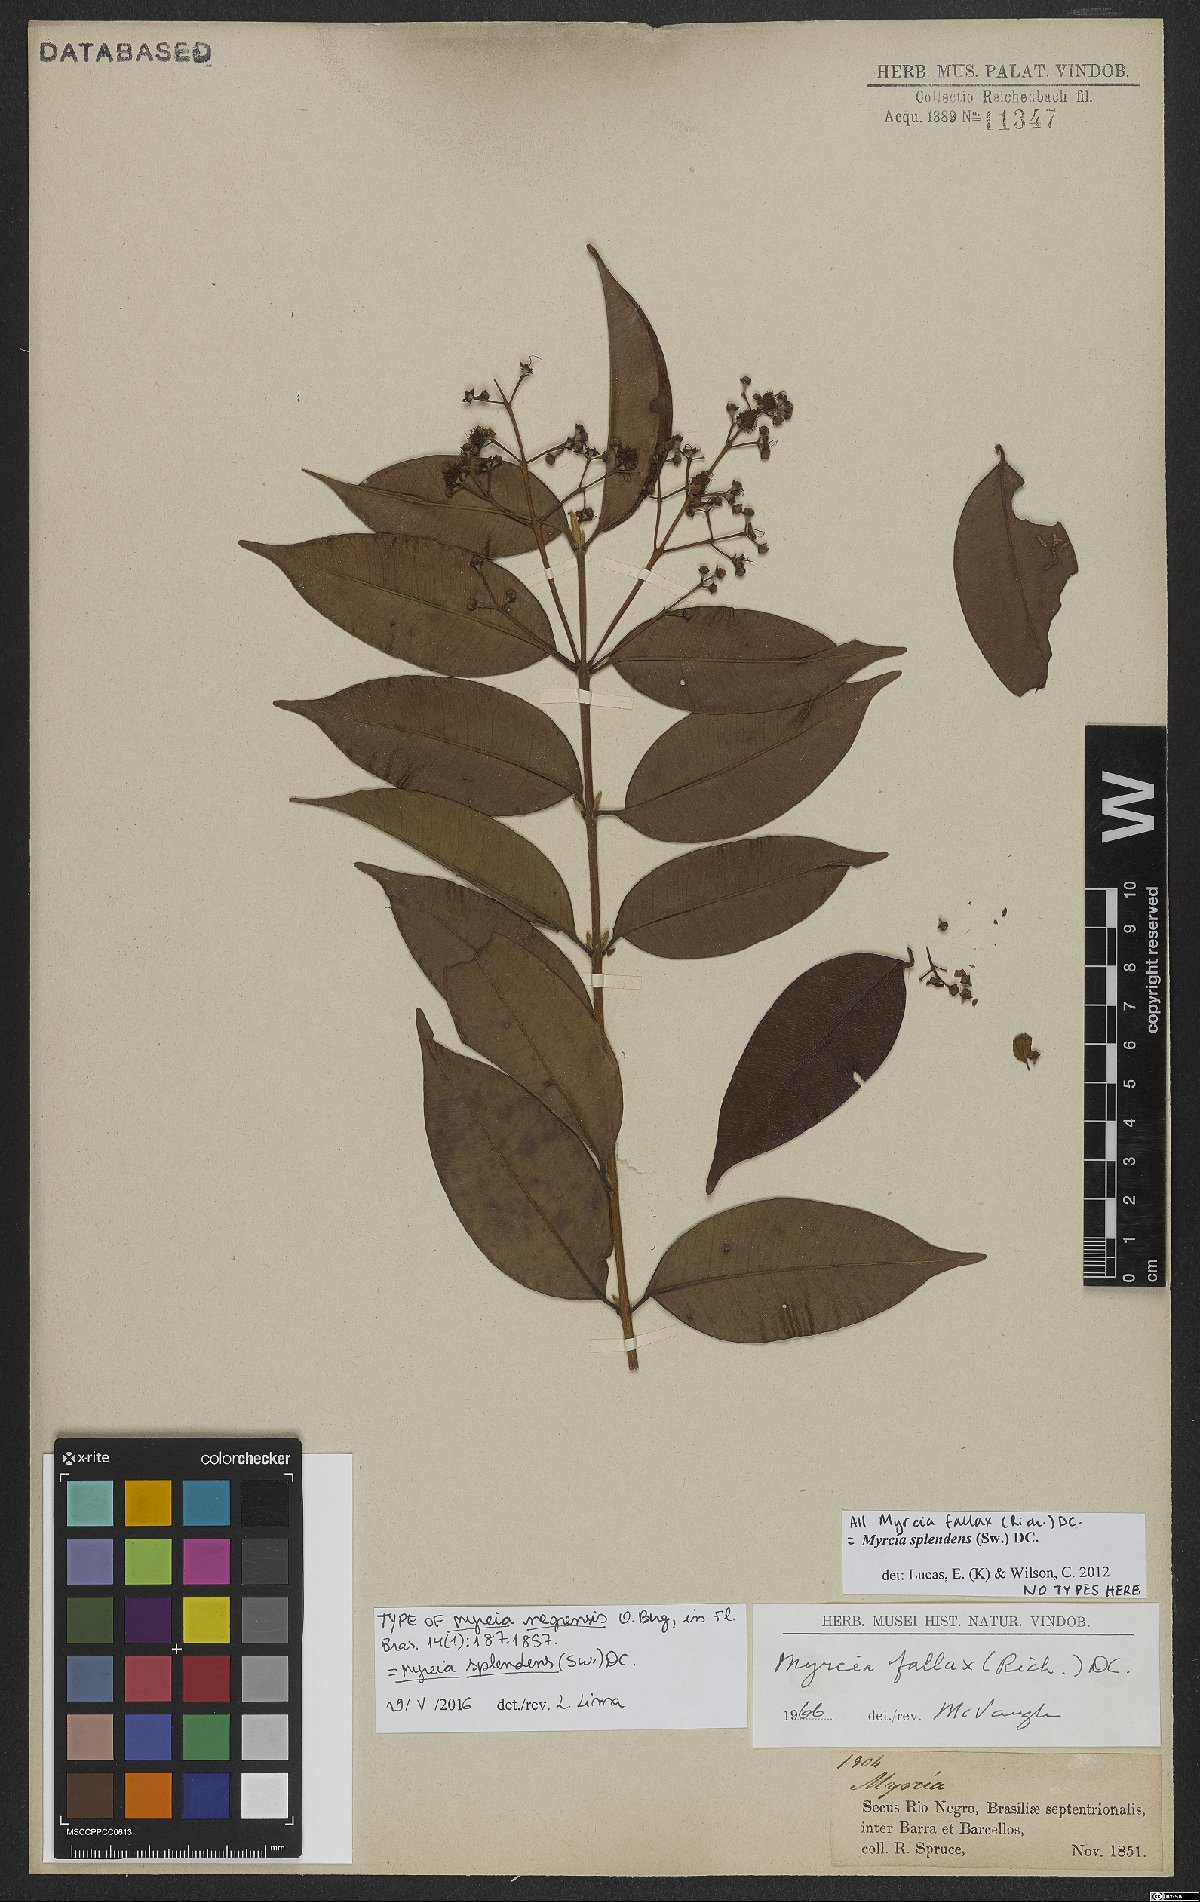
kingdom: Plantae
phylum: Tracheophyta
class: Magnoliopsida
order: Myrtales
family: Myrtaceae
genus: Myrcia
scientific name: Myrcia splendens
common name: Surinam cherry
